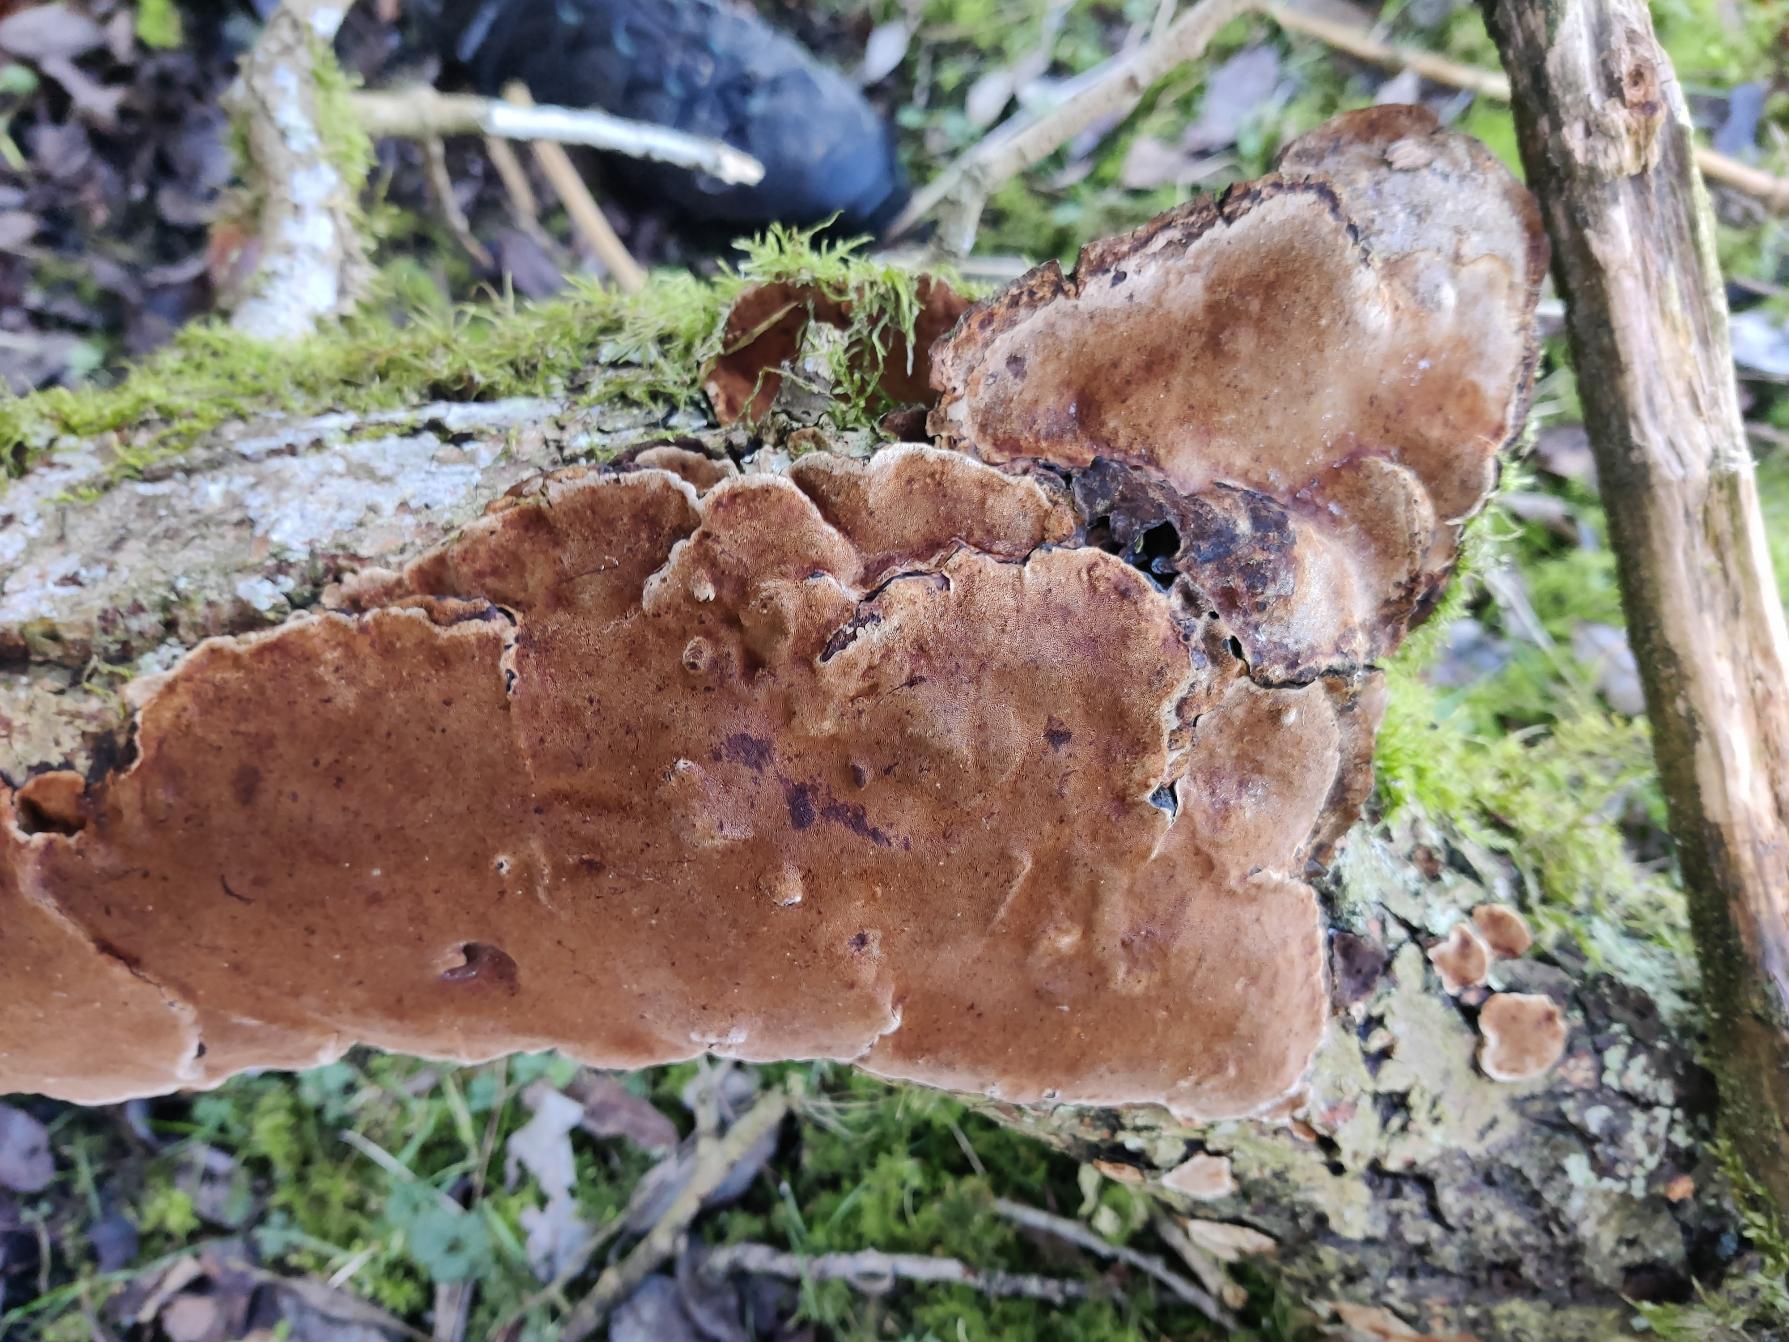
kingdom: Fungi
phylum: Basidiomycota
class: Agaricomycetes
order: Hymenochaetales
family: Hymenochaetaceae
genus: Phellinopsis
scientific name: Phellinopsis conchata
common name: Pile-ildporesvamp
